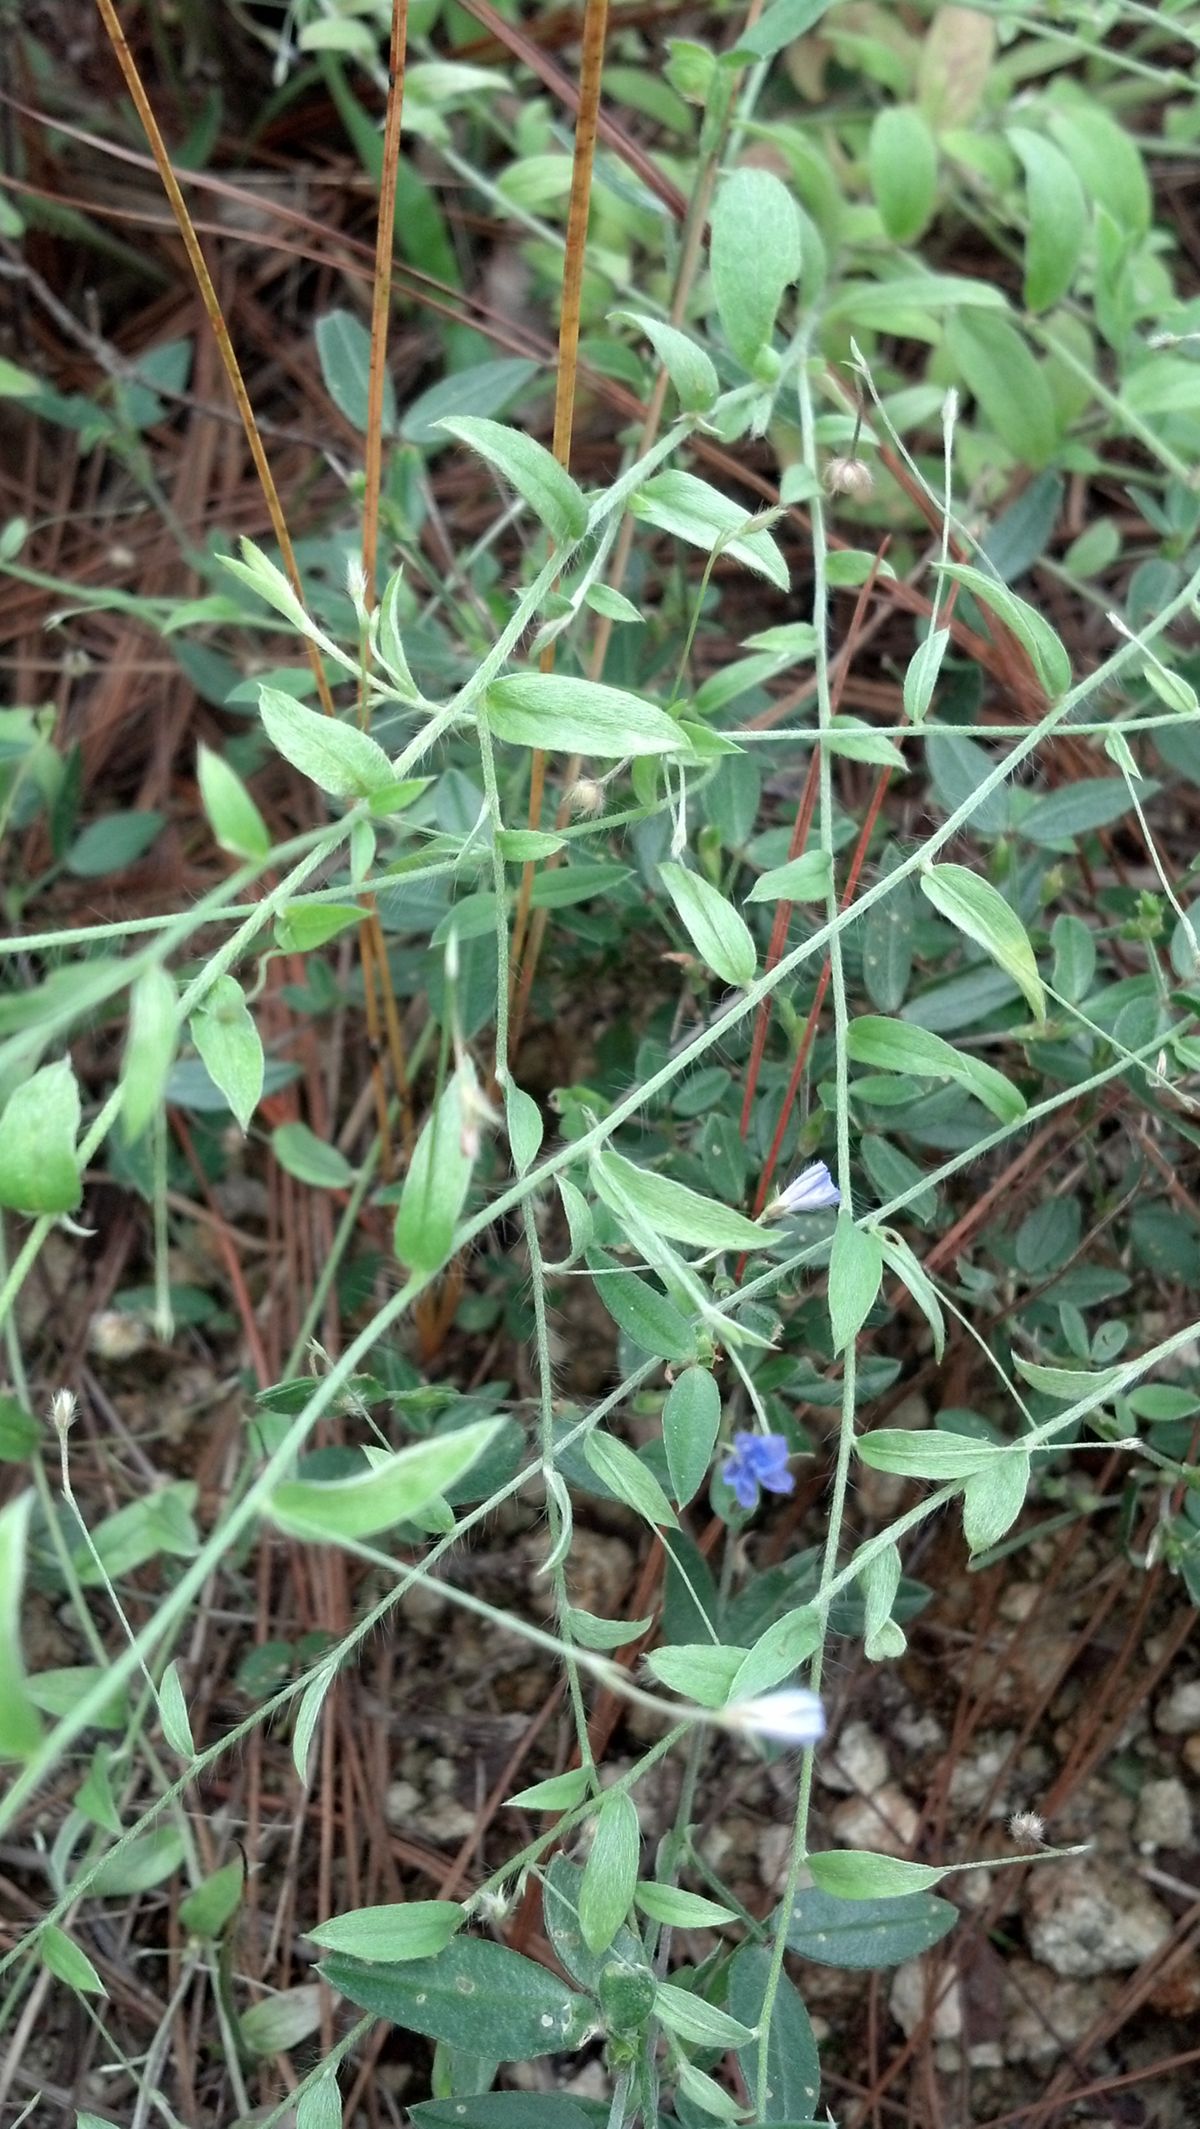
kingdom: Plantae
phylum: Tracheophyta
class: Magnoliopsida
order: Solanales
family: Convolvulaceae
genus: Evolvulus
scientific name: Evolvulus alsinoides
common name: Slender dwarf morning-glory
